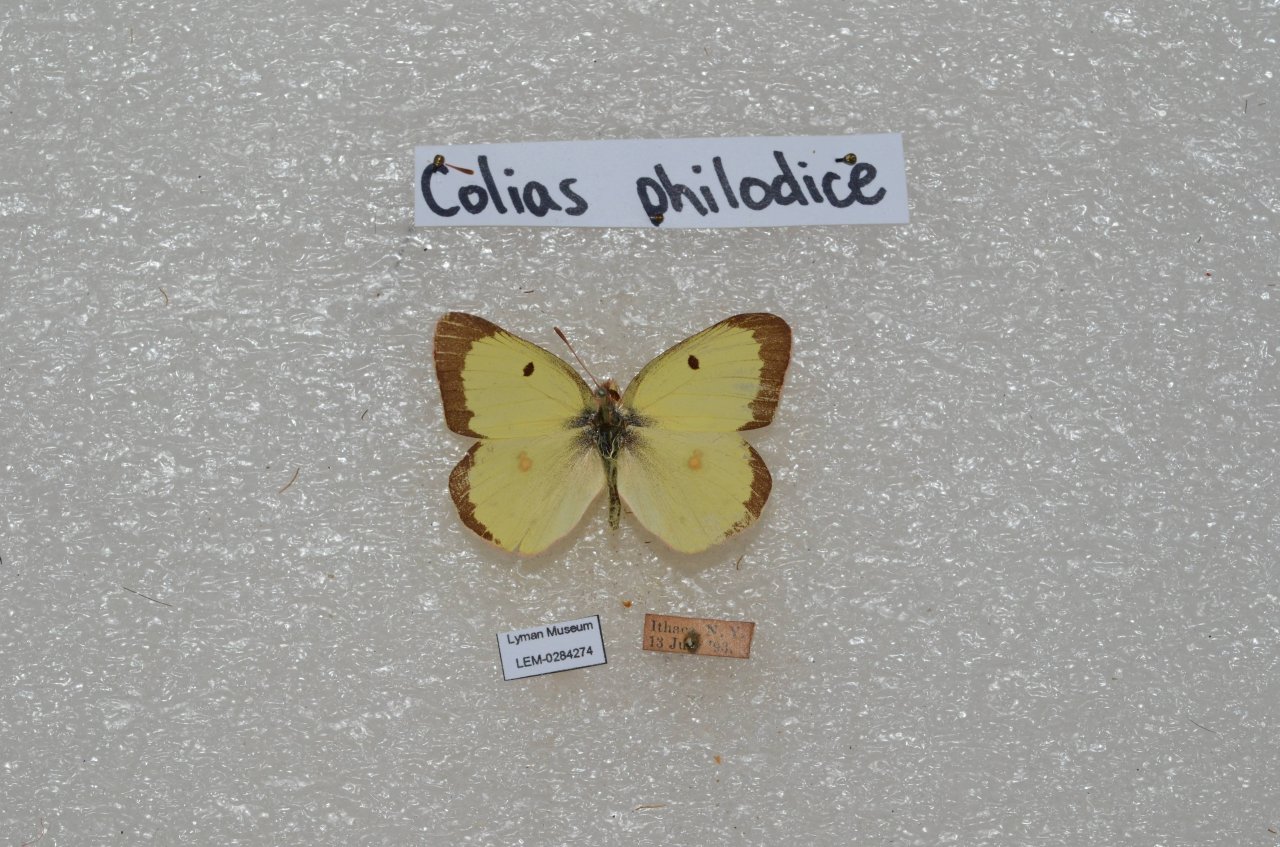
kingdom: Animalia
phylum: Arthropoda
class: Insecta
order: Lepidoptera
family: Pieridae
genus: Colias
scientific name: Colias philodice
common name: Clouded Sulphur
